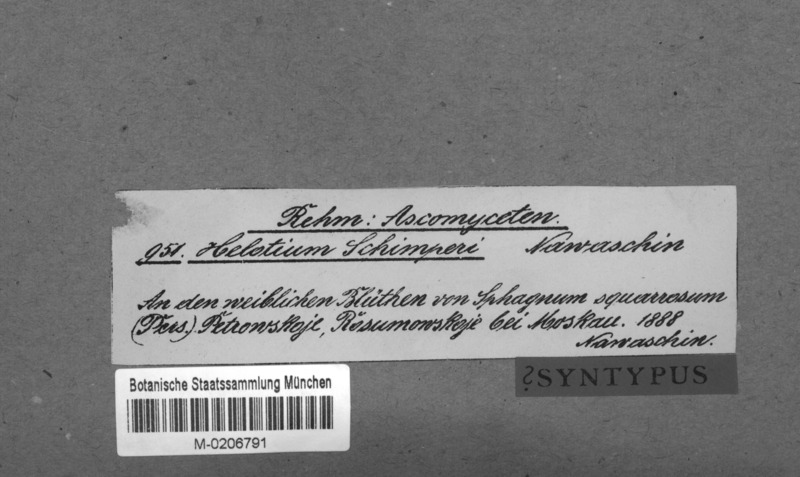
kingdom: Fungi
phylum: Ascomycota
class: Leotiomycetes
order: Helotiales
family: Tricladiaceae
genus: Helotium
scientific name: Helotium schimperi
